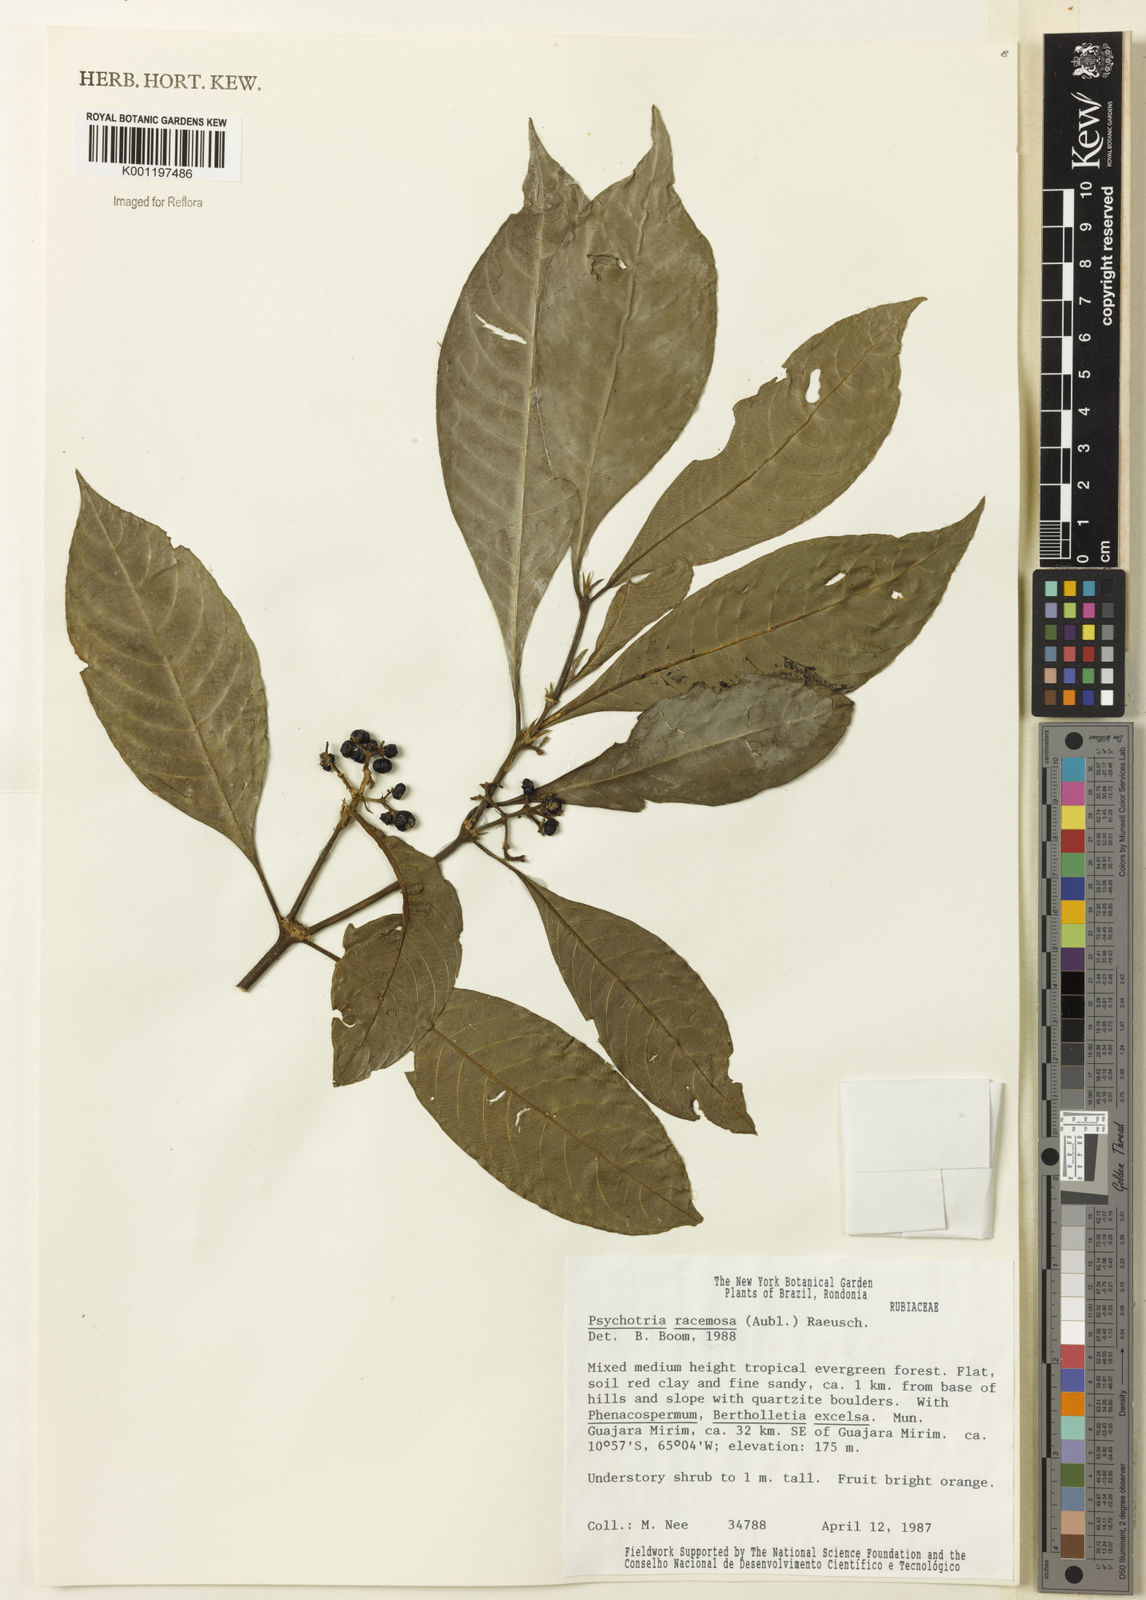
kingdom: Plantae
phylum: Tracheophyta
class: Magnoliopsida
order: Gentianales
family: Rubiaceae
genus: Palicourea
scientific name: Palicourea racemosa
